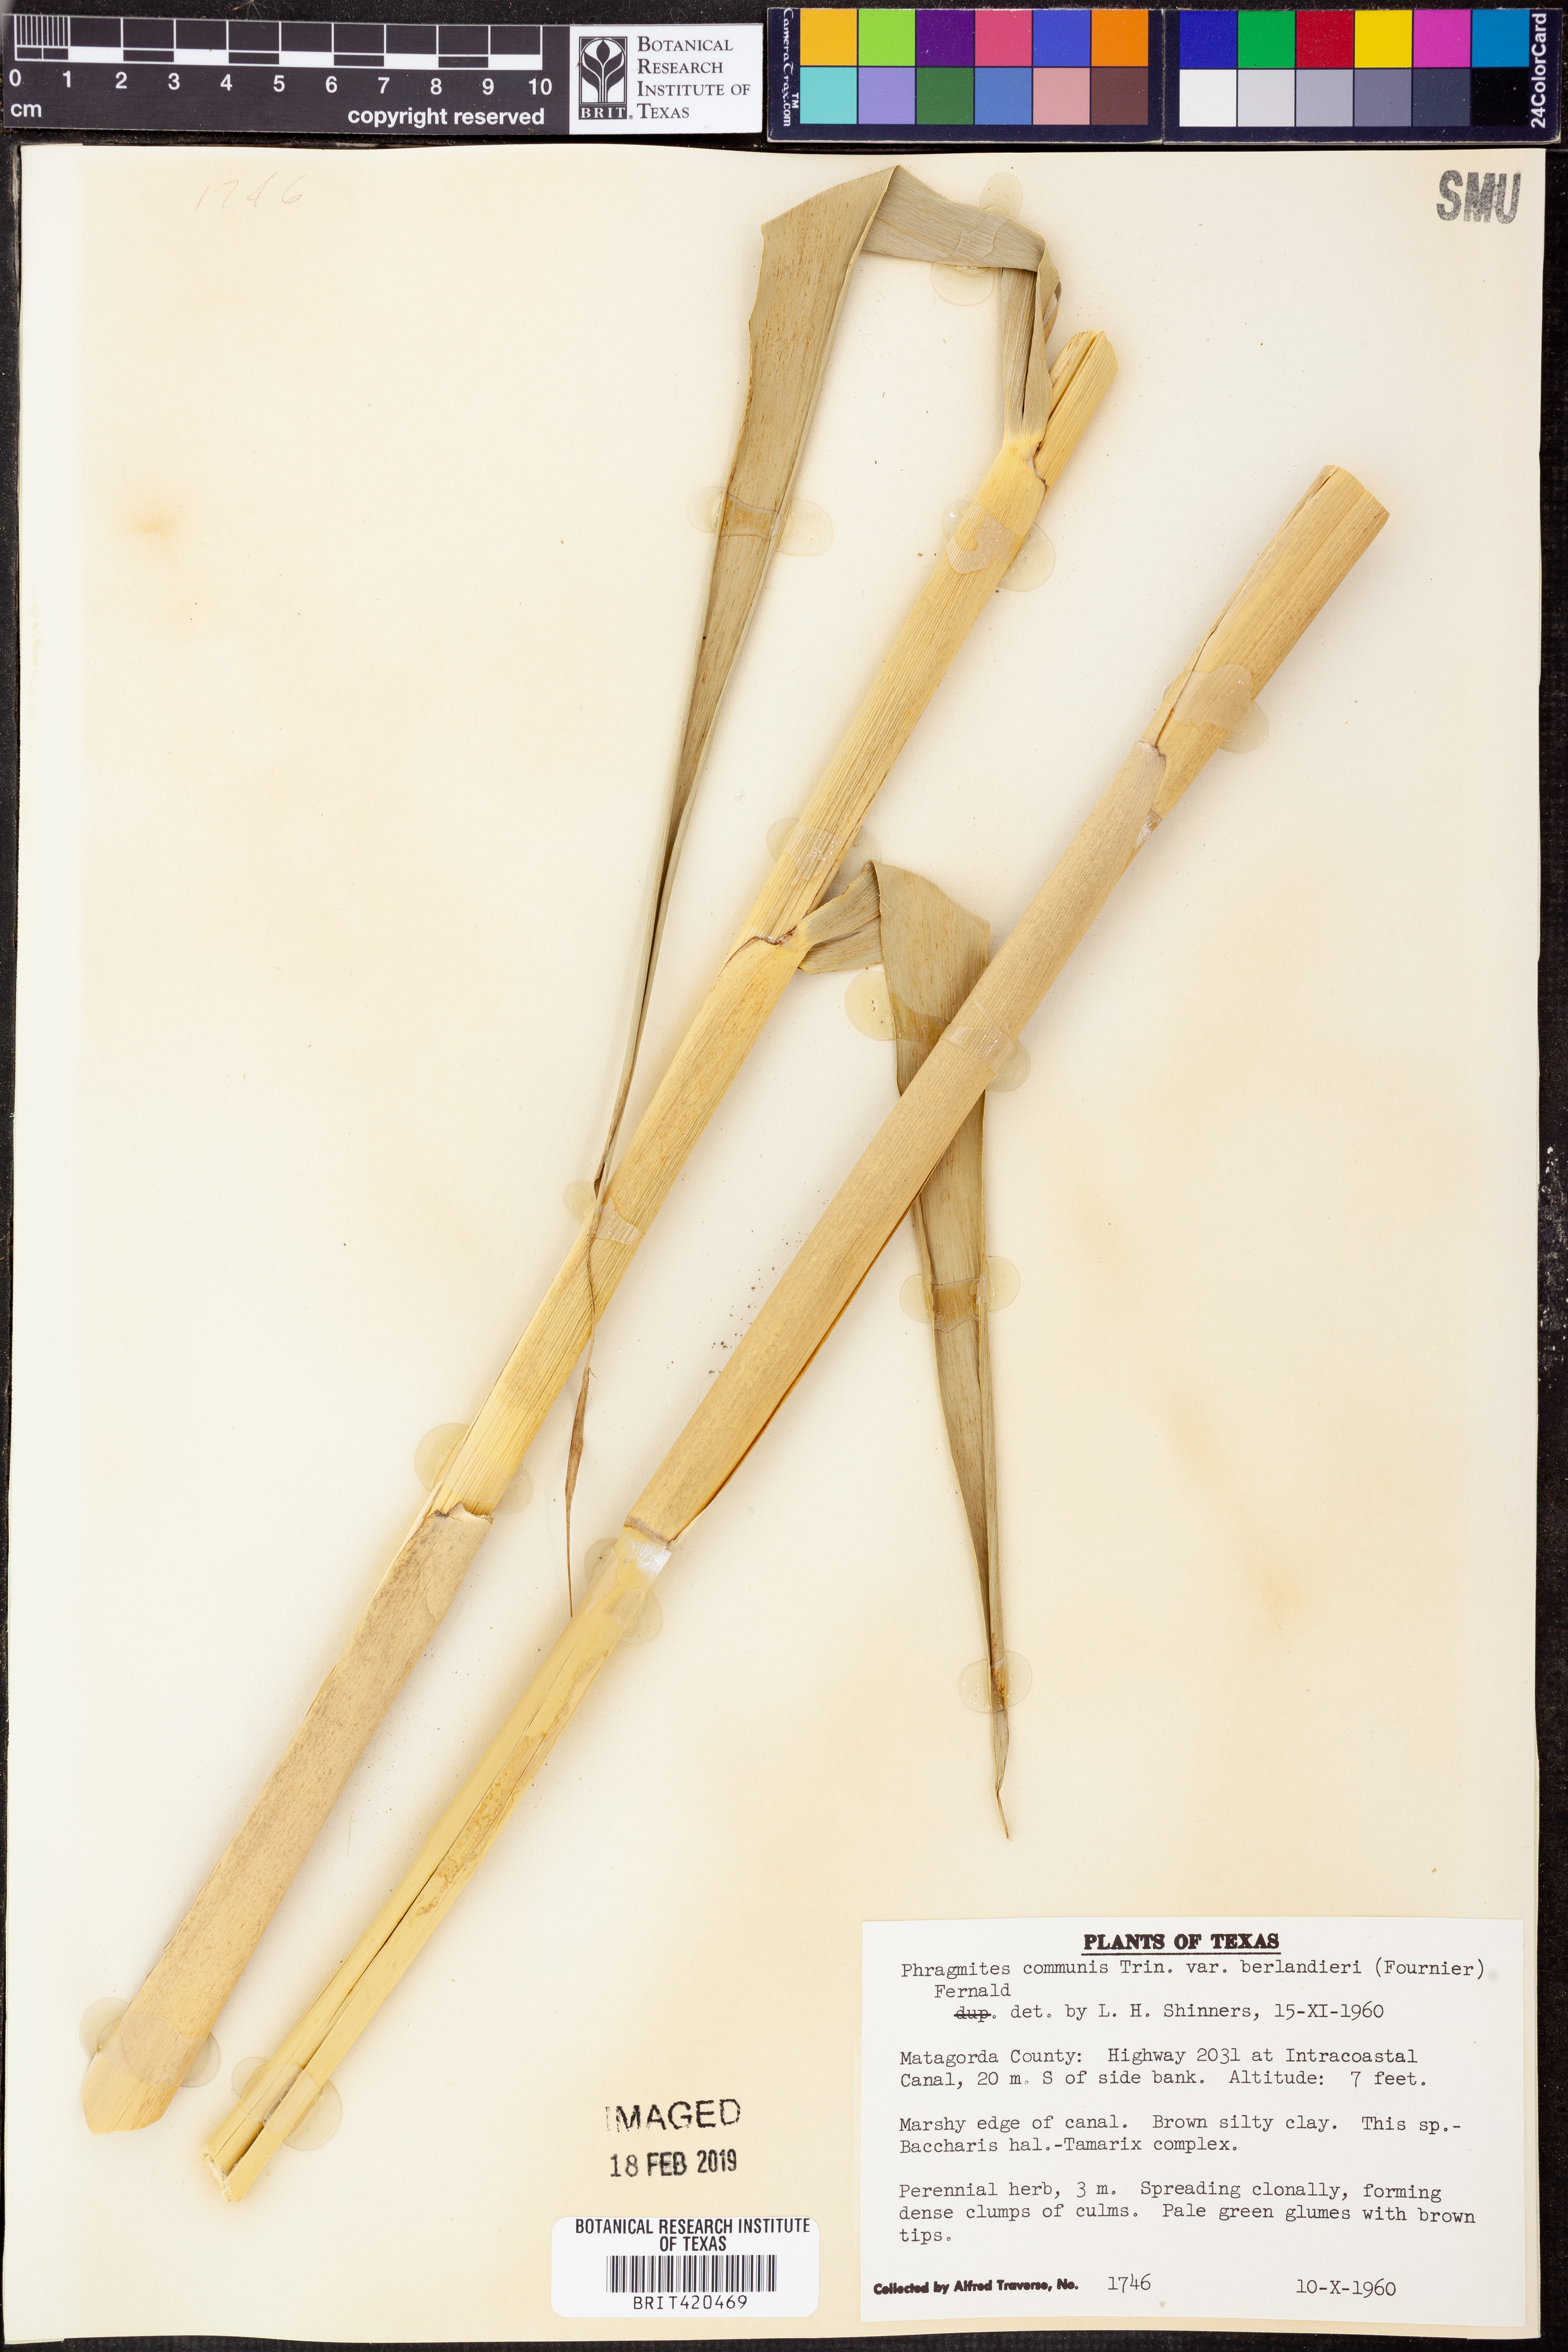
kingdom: Plantae
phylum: Tracheophyta
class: Liliopsida
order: Poales
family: Poaceae
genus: Phragmites
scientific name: Phragmites australis
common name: Common reed
